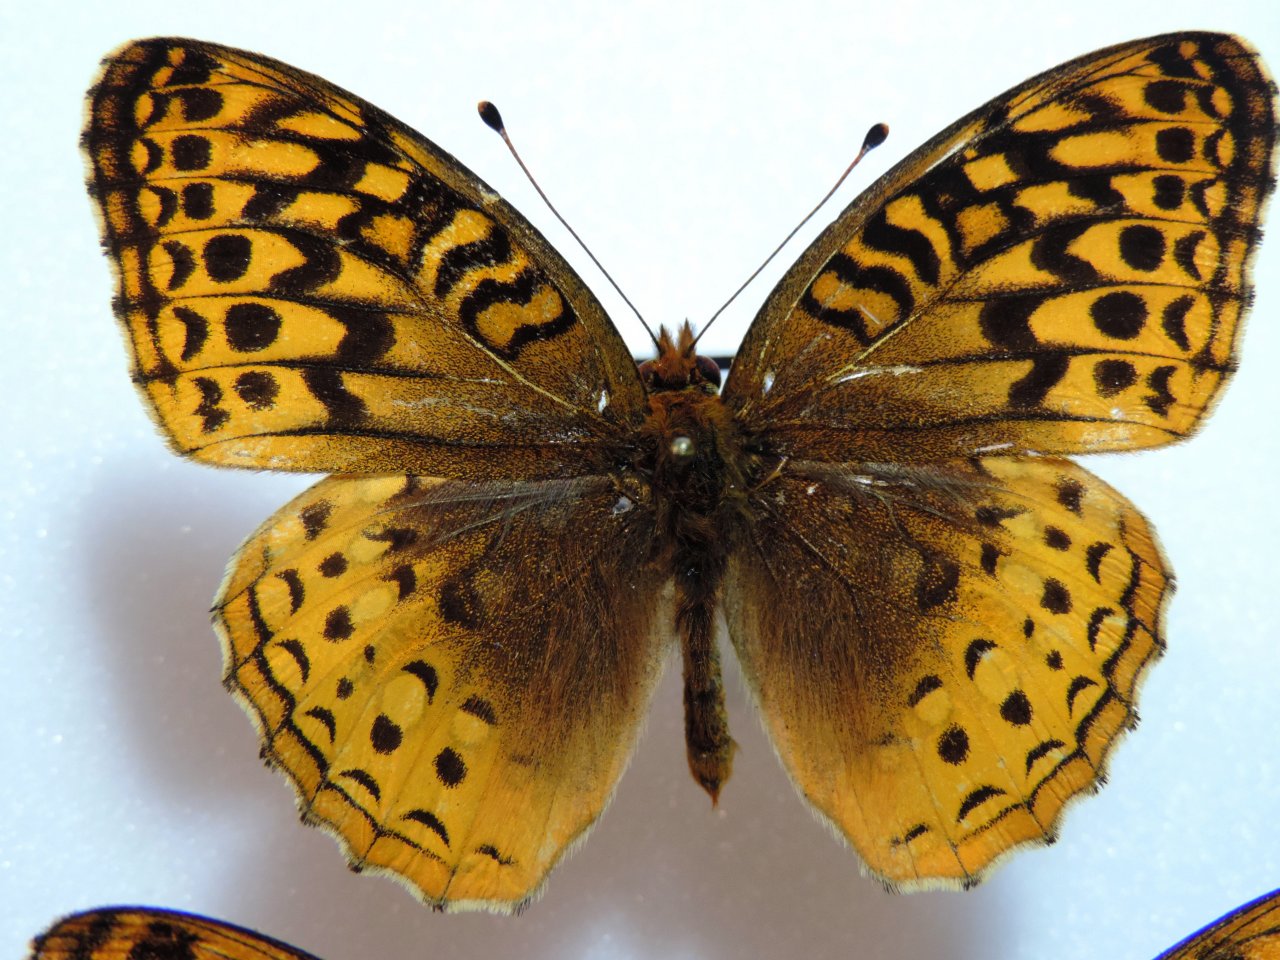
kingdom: Animalia
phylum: Arthropoda
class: Insecta
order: Lepidoptera
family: Nymphalidae
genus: Speyeria
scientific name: Speyeria cybele
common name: Great Spangled Fritillary
